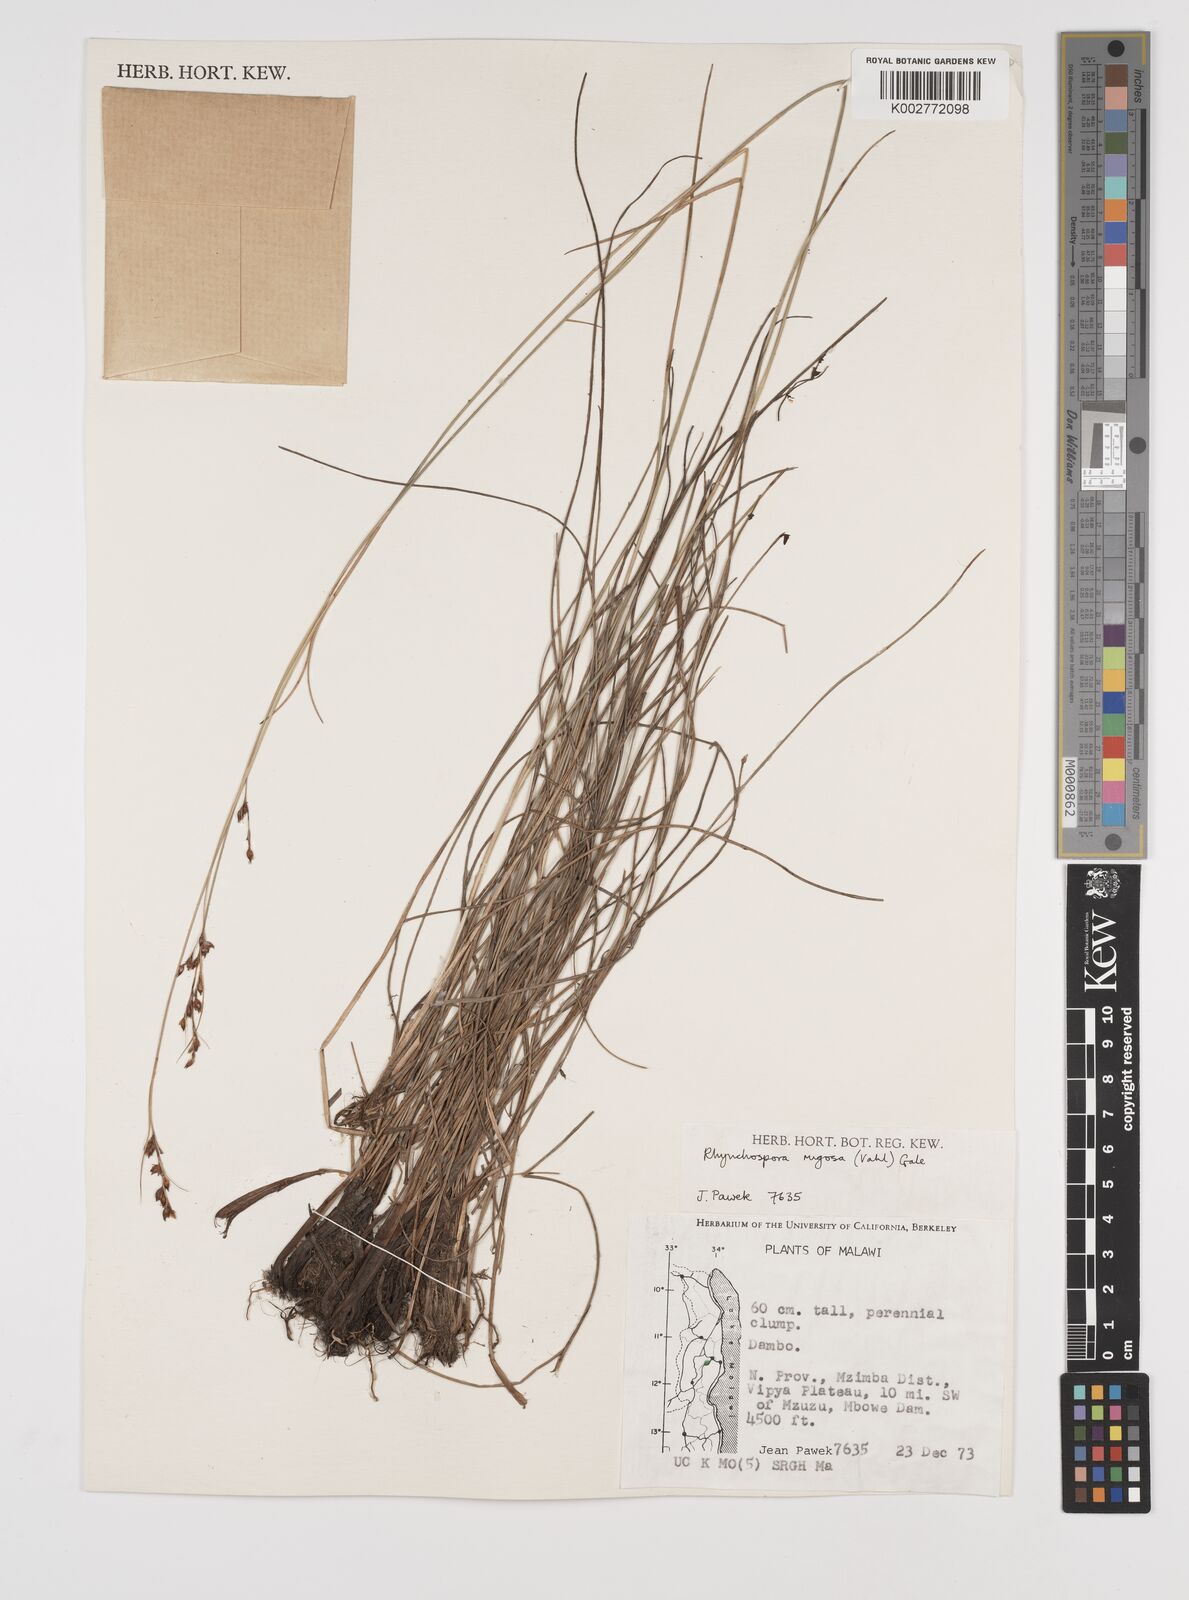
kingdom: Plantae
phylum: Tracheophyta
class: Liliopsida
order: Poales
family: Cyperaceae
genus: Rhynchospora
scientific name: Rhynchospora rugosa
